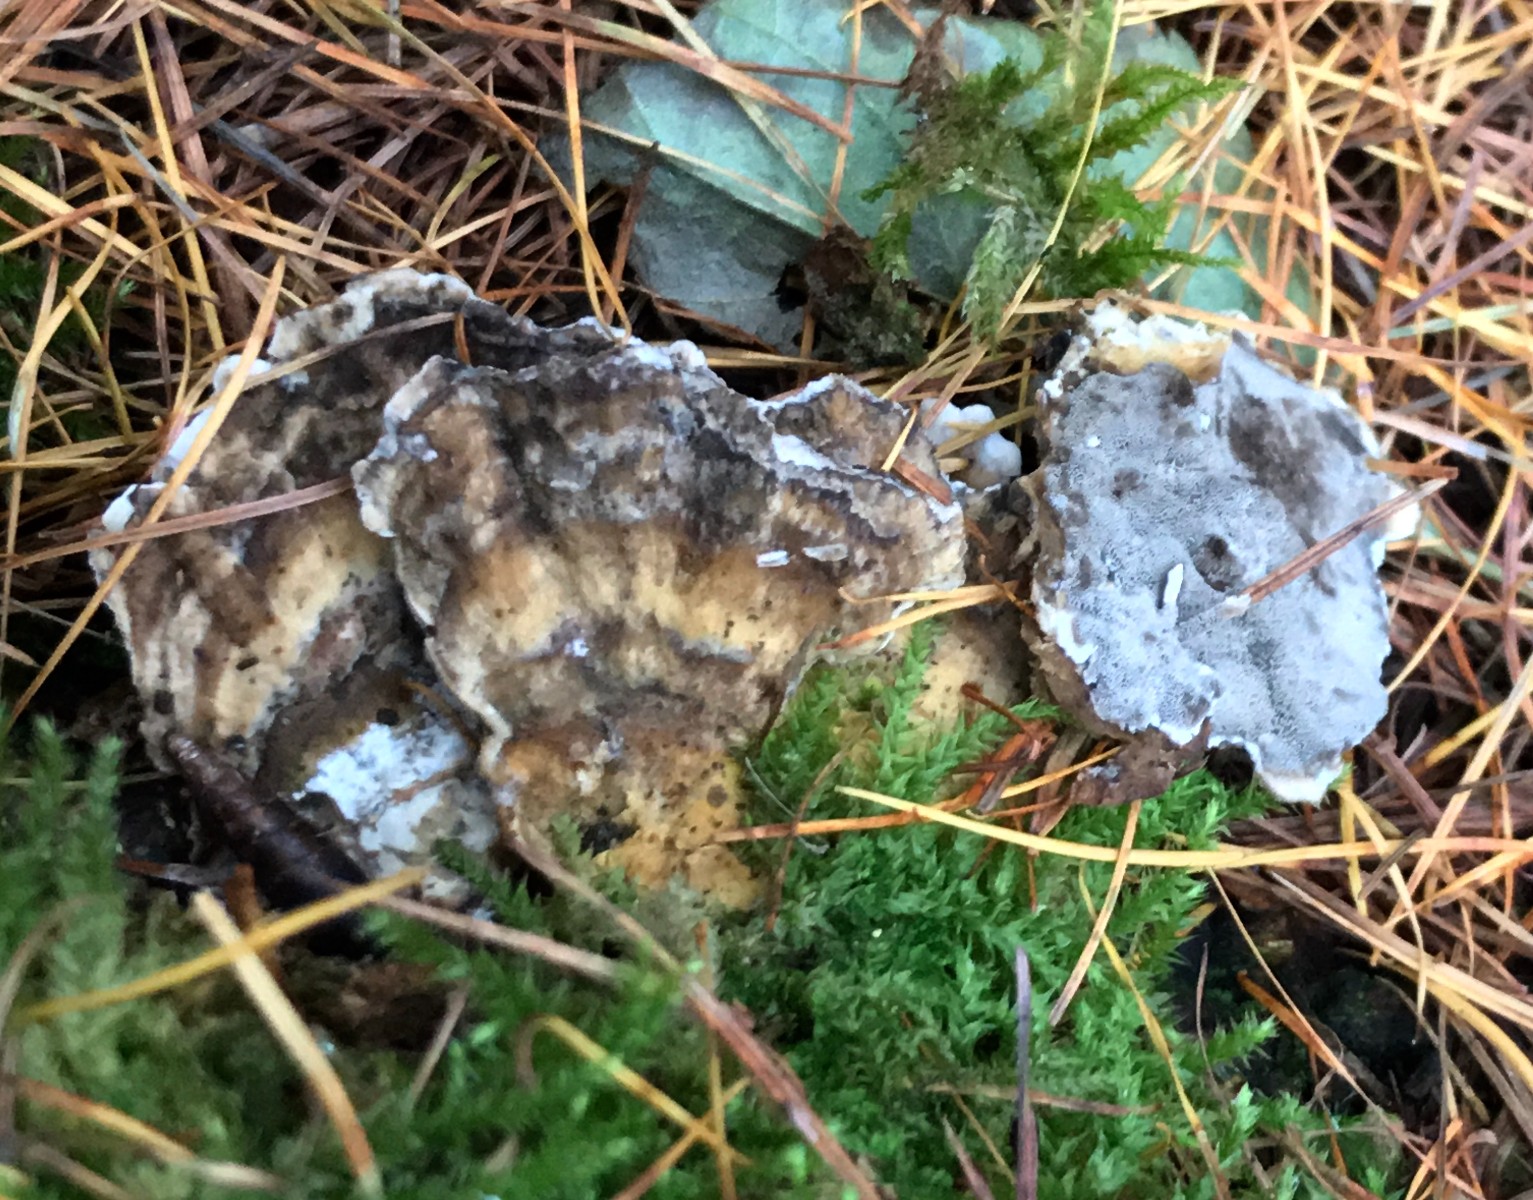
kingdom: Fungi
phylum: Basidiomycota
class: Agaricomycetes
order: Polyporales
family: Phanerochaetaceae
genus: Bjerkandera
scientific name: Bjerkandera adusta
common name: sveden sodporesvamp
